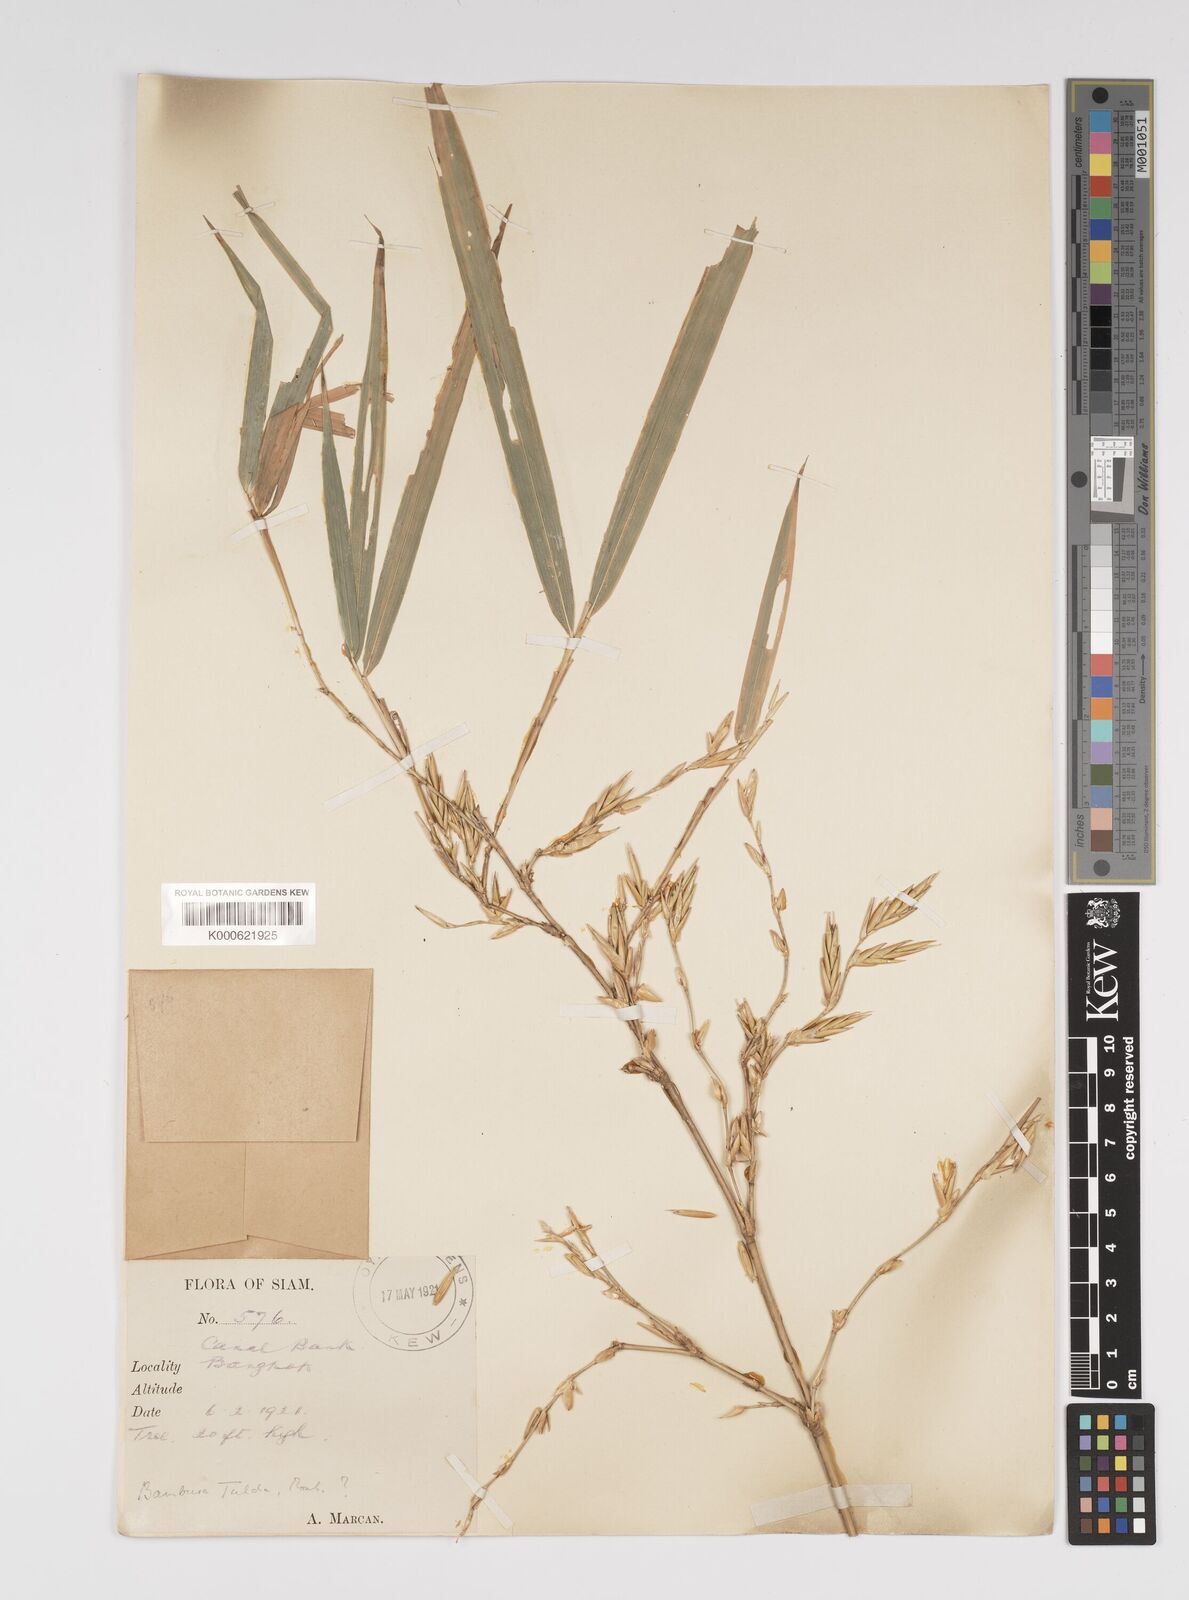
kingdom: Plantae
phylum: Tracheophyta
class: Liliopsida
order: Poales
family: Poaceae
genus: Bambusa
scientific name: Bambusa
